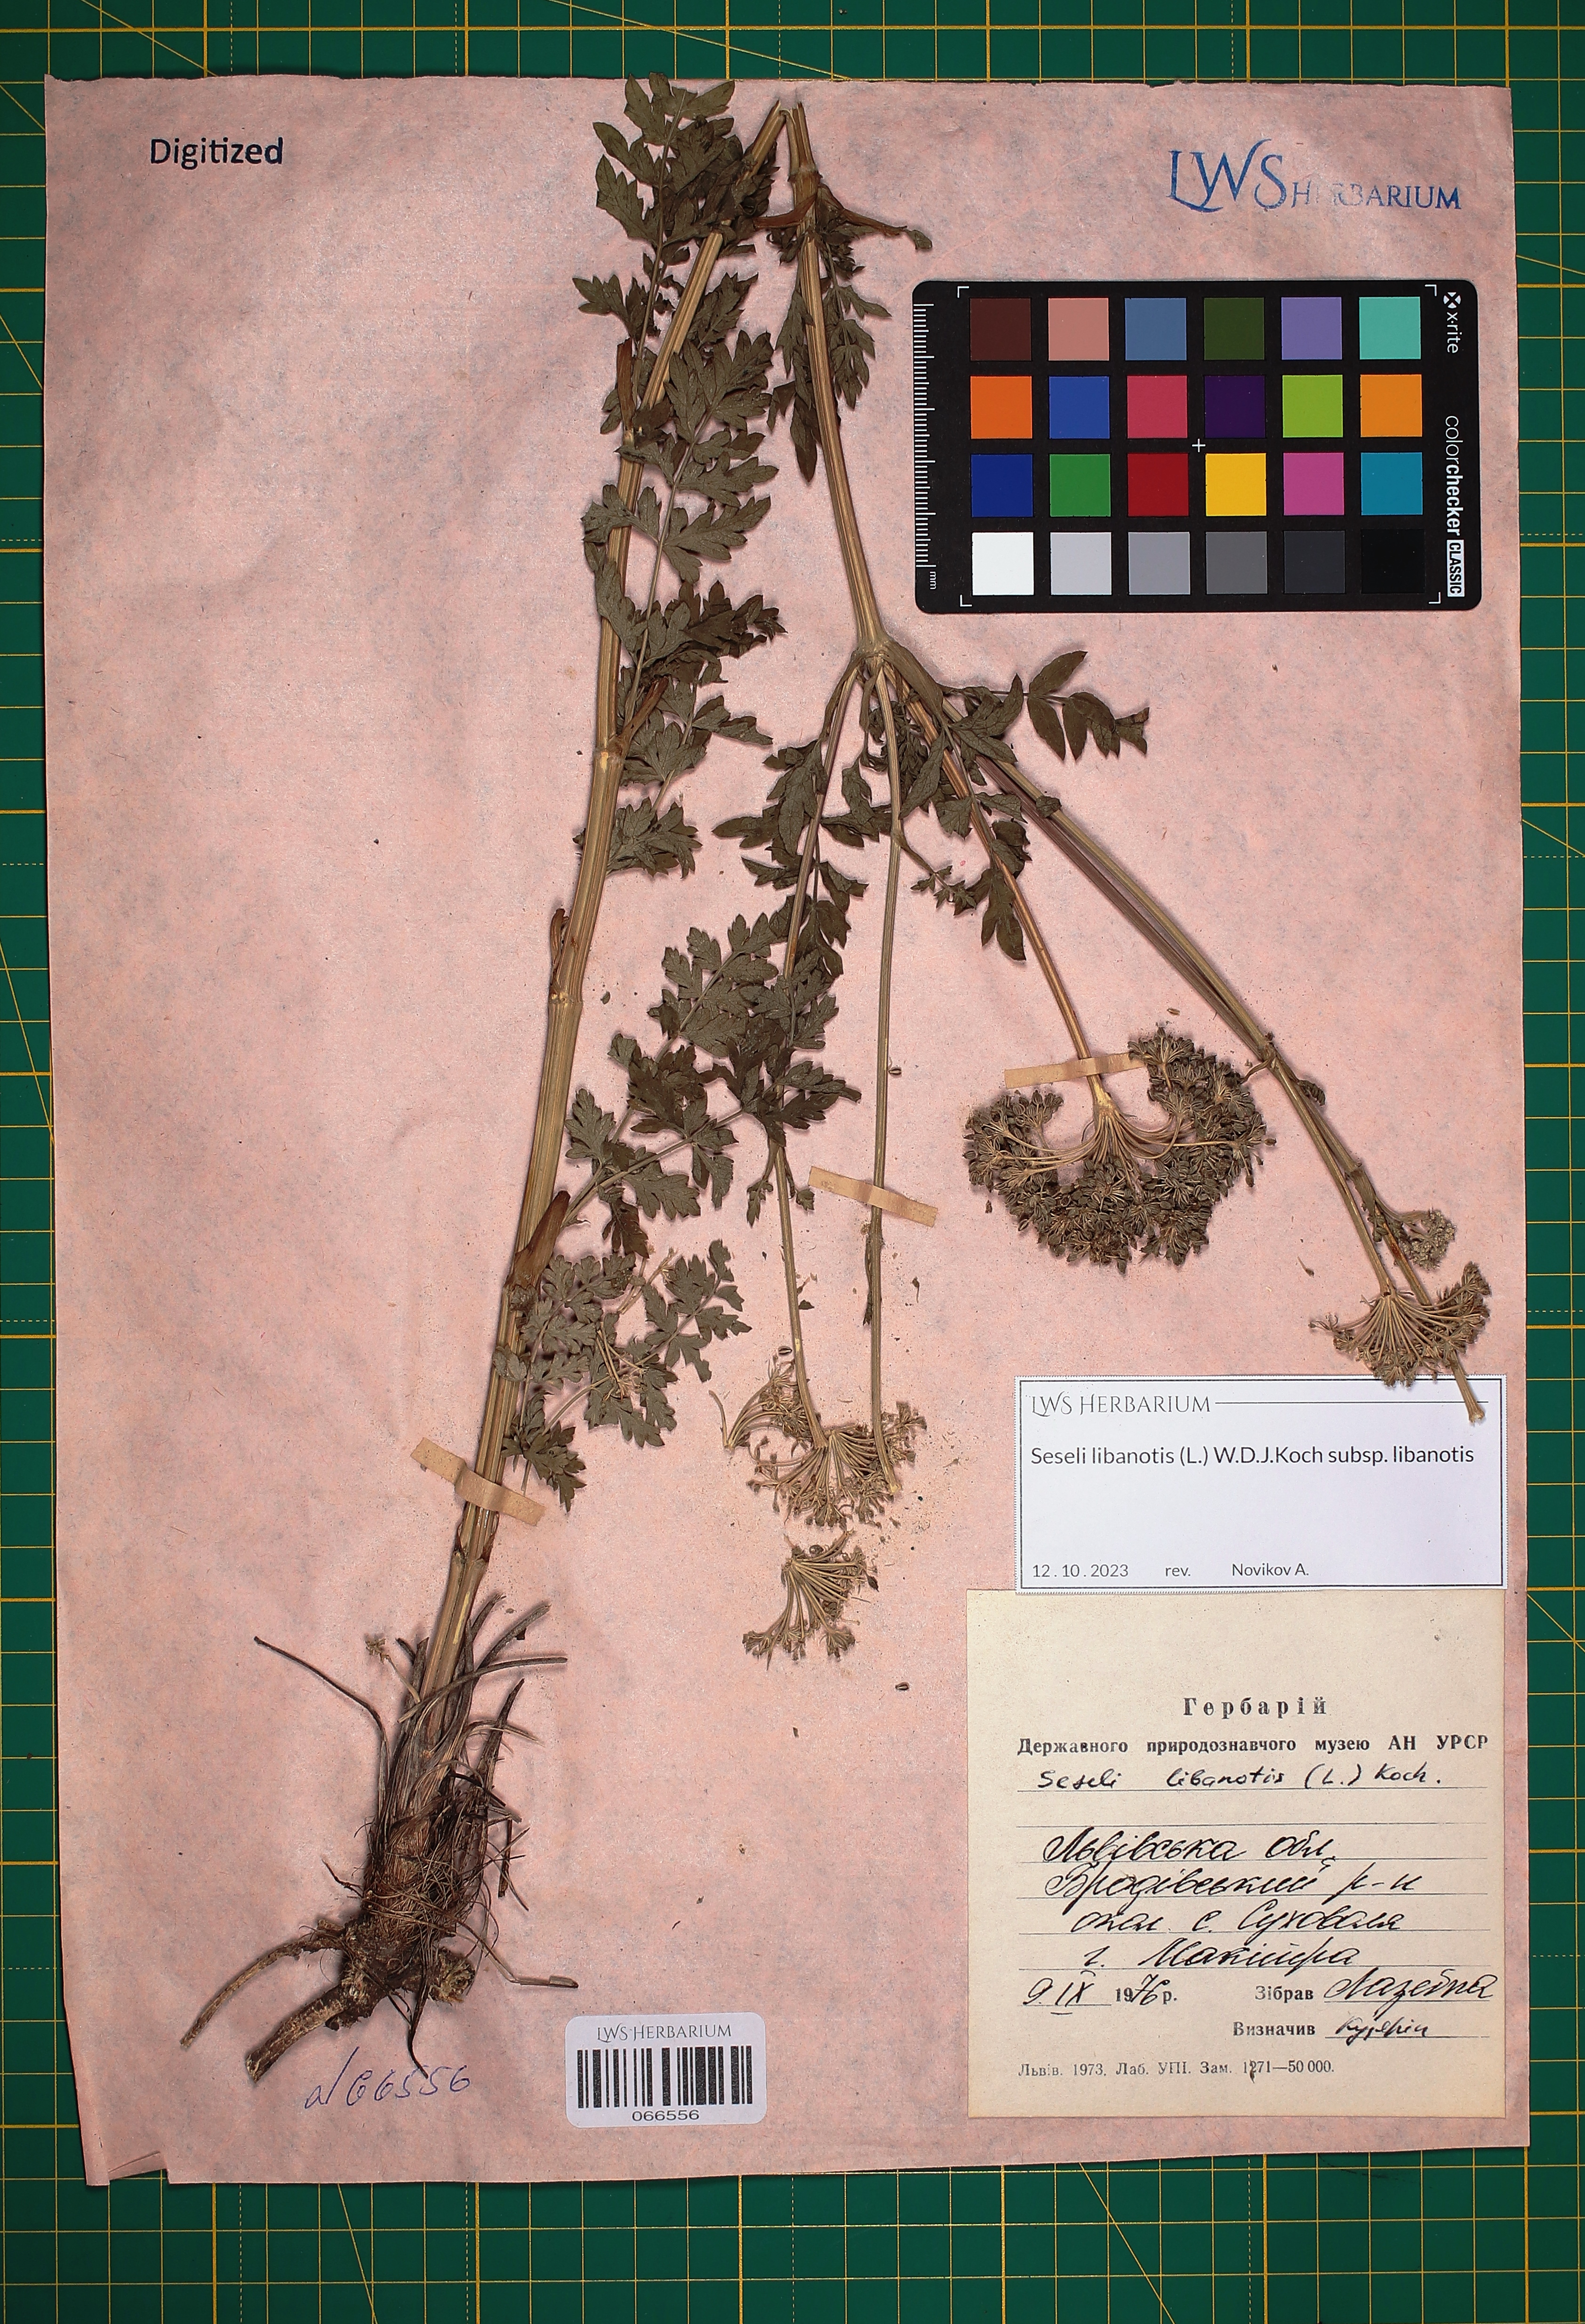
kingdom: Plantae
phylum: Tracheophyta
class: Magnoliopsida
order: Apiales
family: Apiaceae
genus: Seseli
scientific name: Seseli libanotis
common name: Mooncarrot
